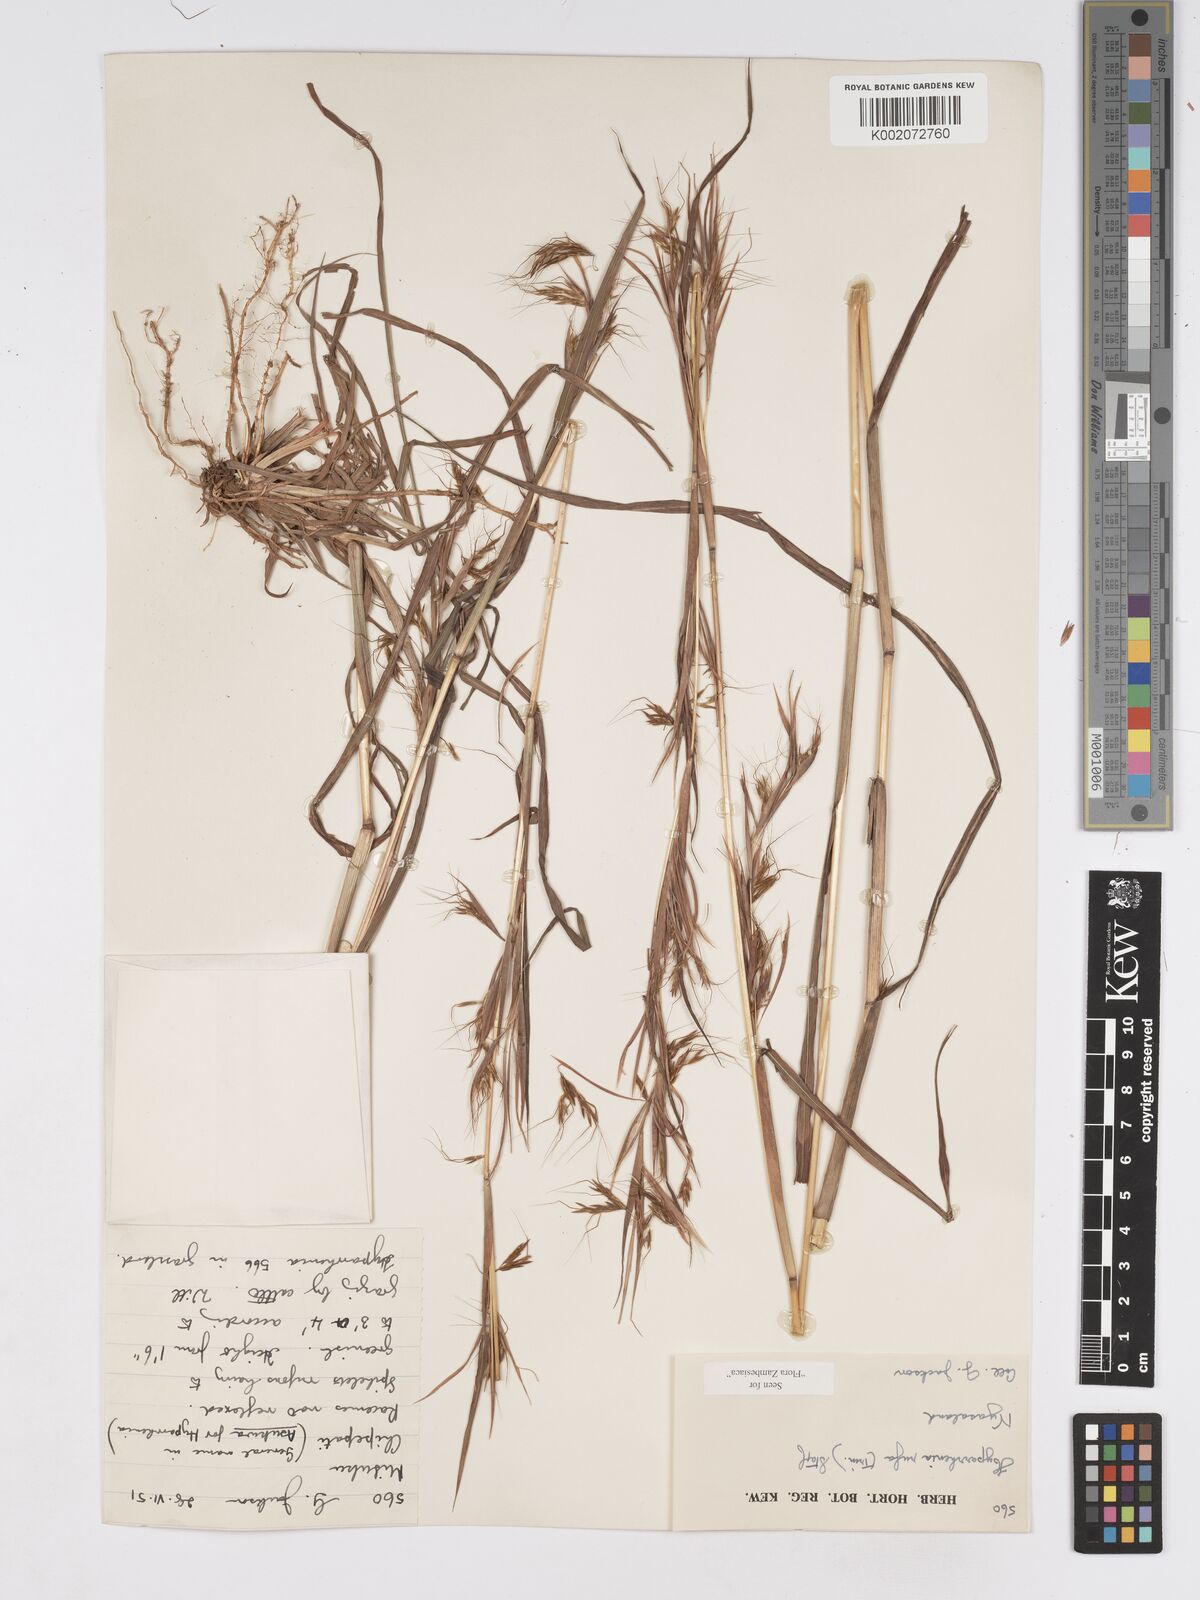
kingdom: Plantae
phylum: Tracheophyta
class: Liliopsida
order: Poales
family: Poaceae
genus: Hyparrhenia
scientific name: Hyparrhenia rufa
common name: Jaraguagrass
